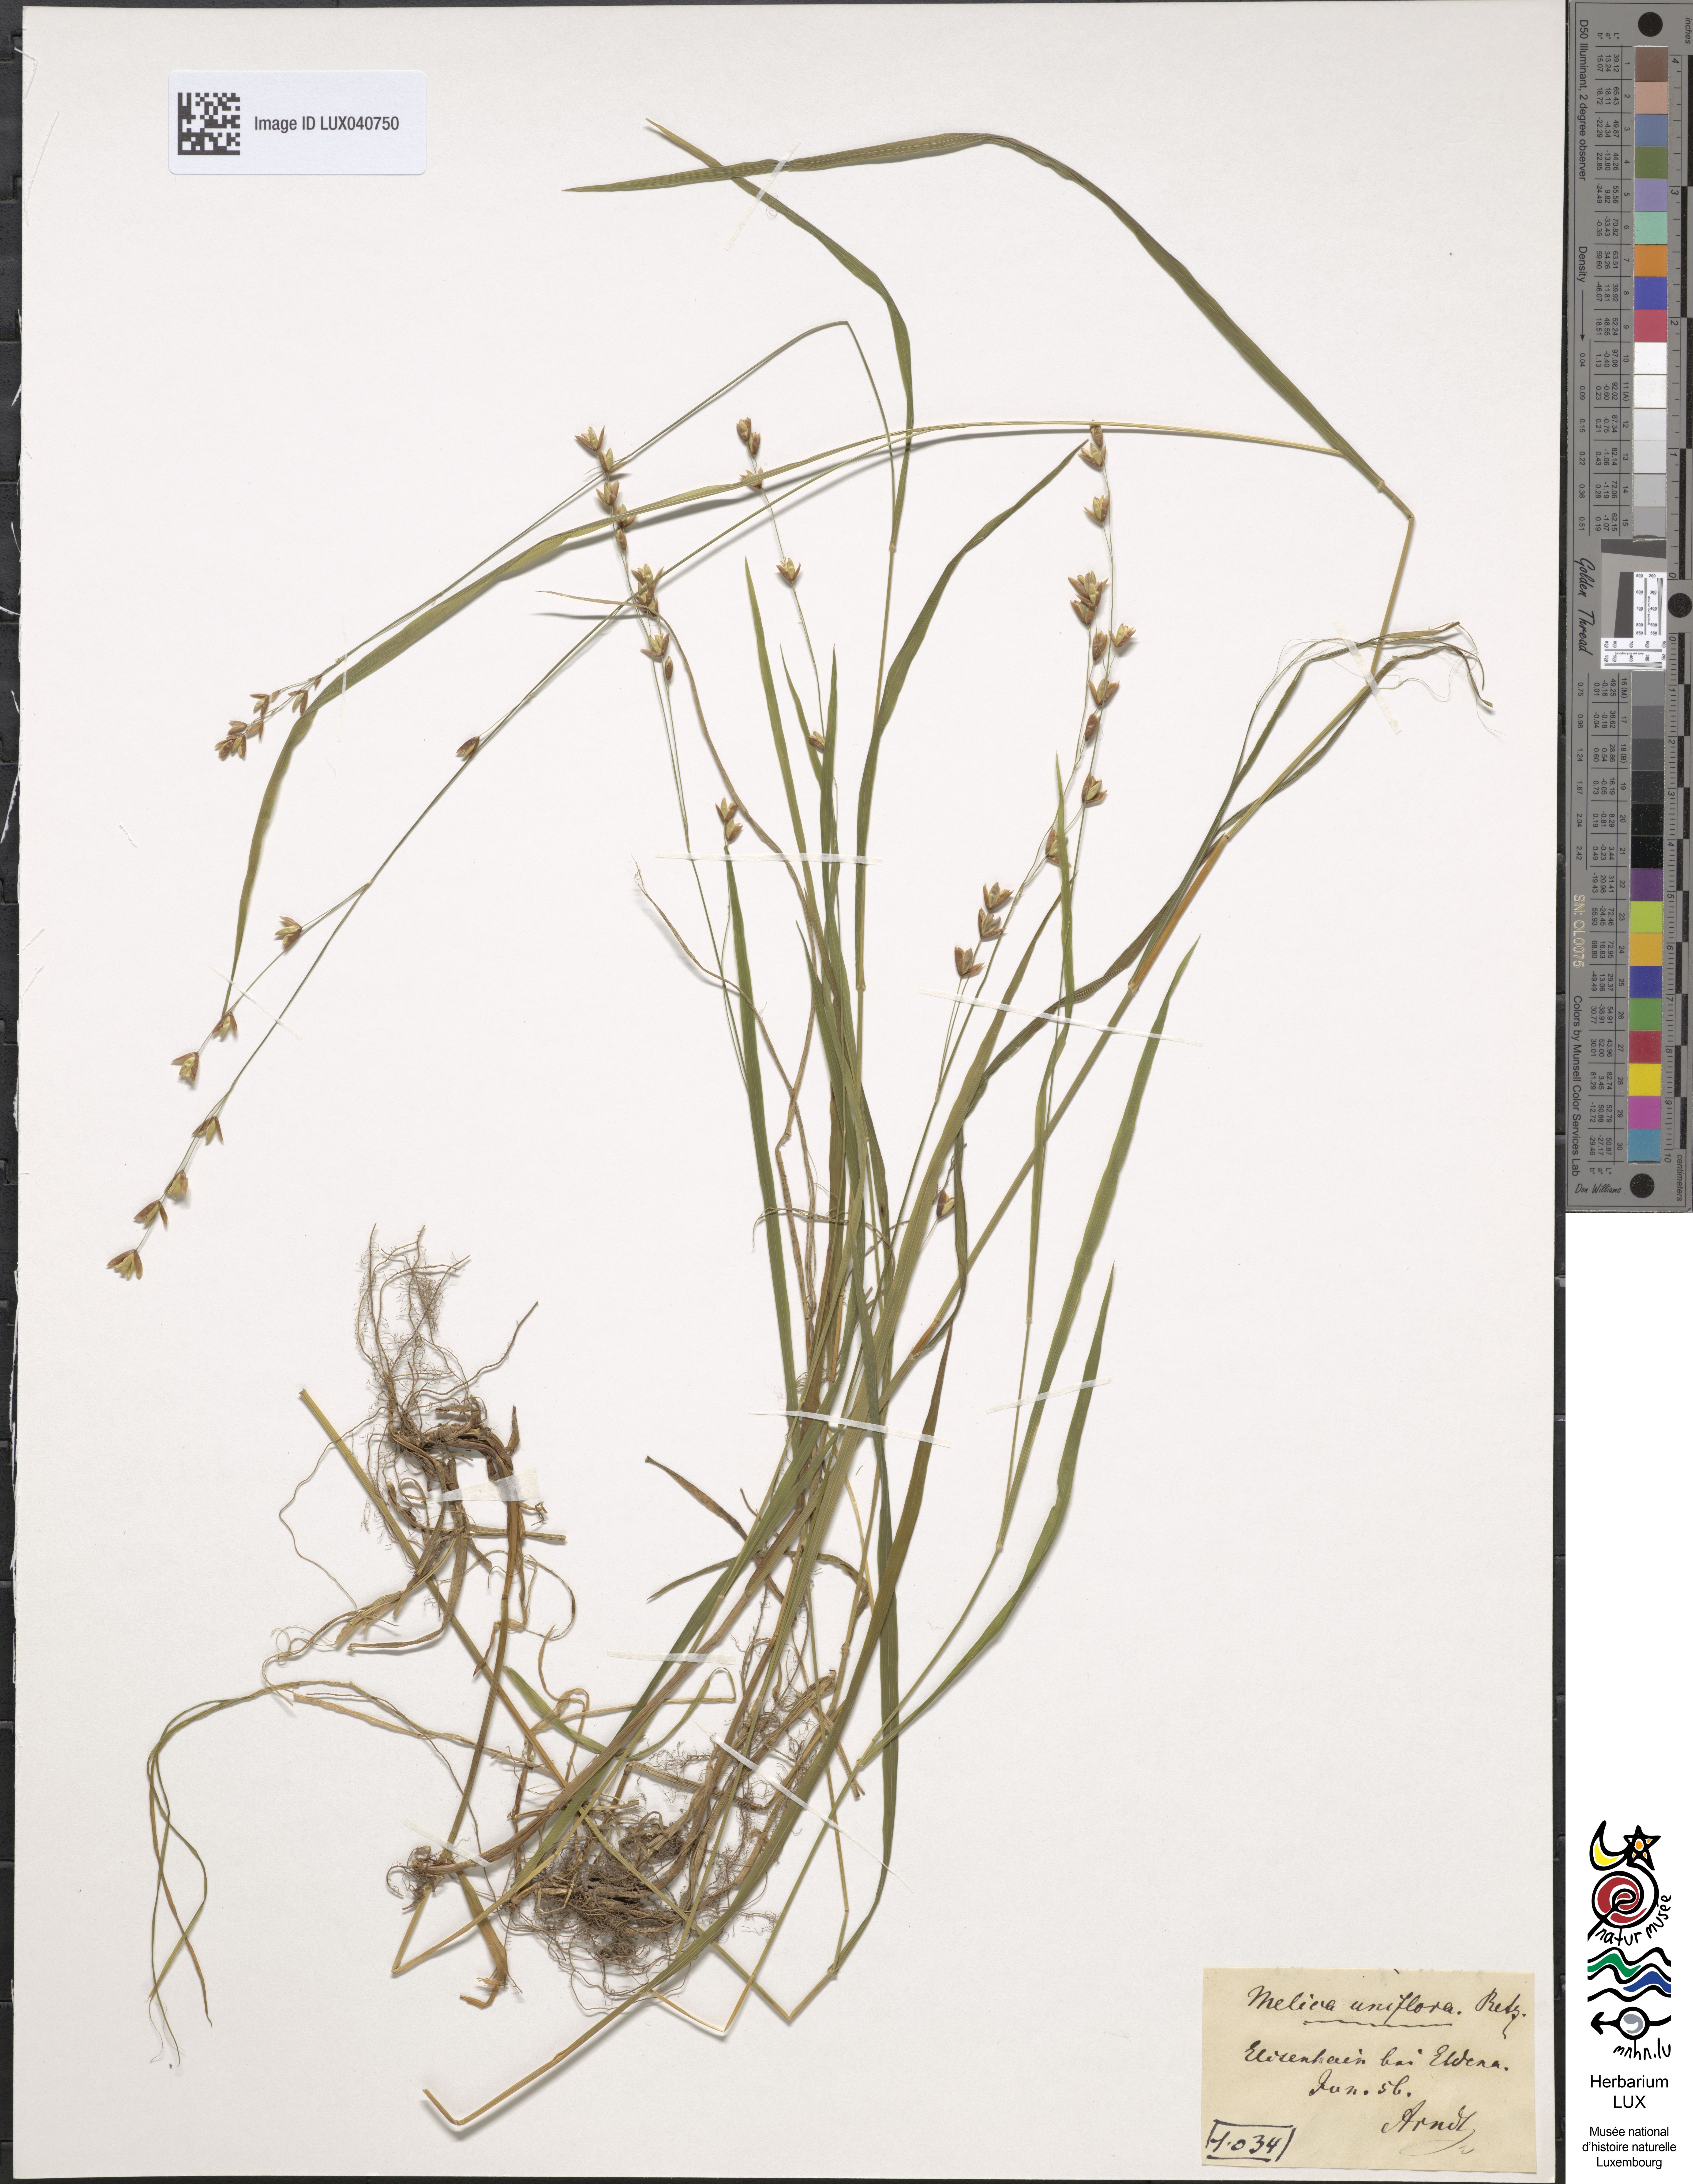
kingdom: Plantae
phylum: Tracheophyta
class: Liliopsida
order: Poales
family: Poaceae
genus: Melica
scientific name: Melica uniflora
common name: Wood melick
